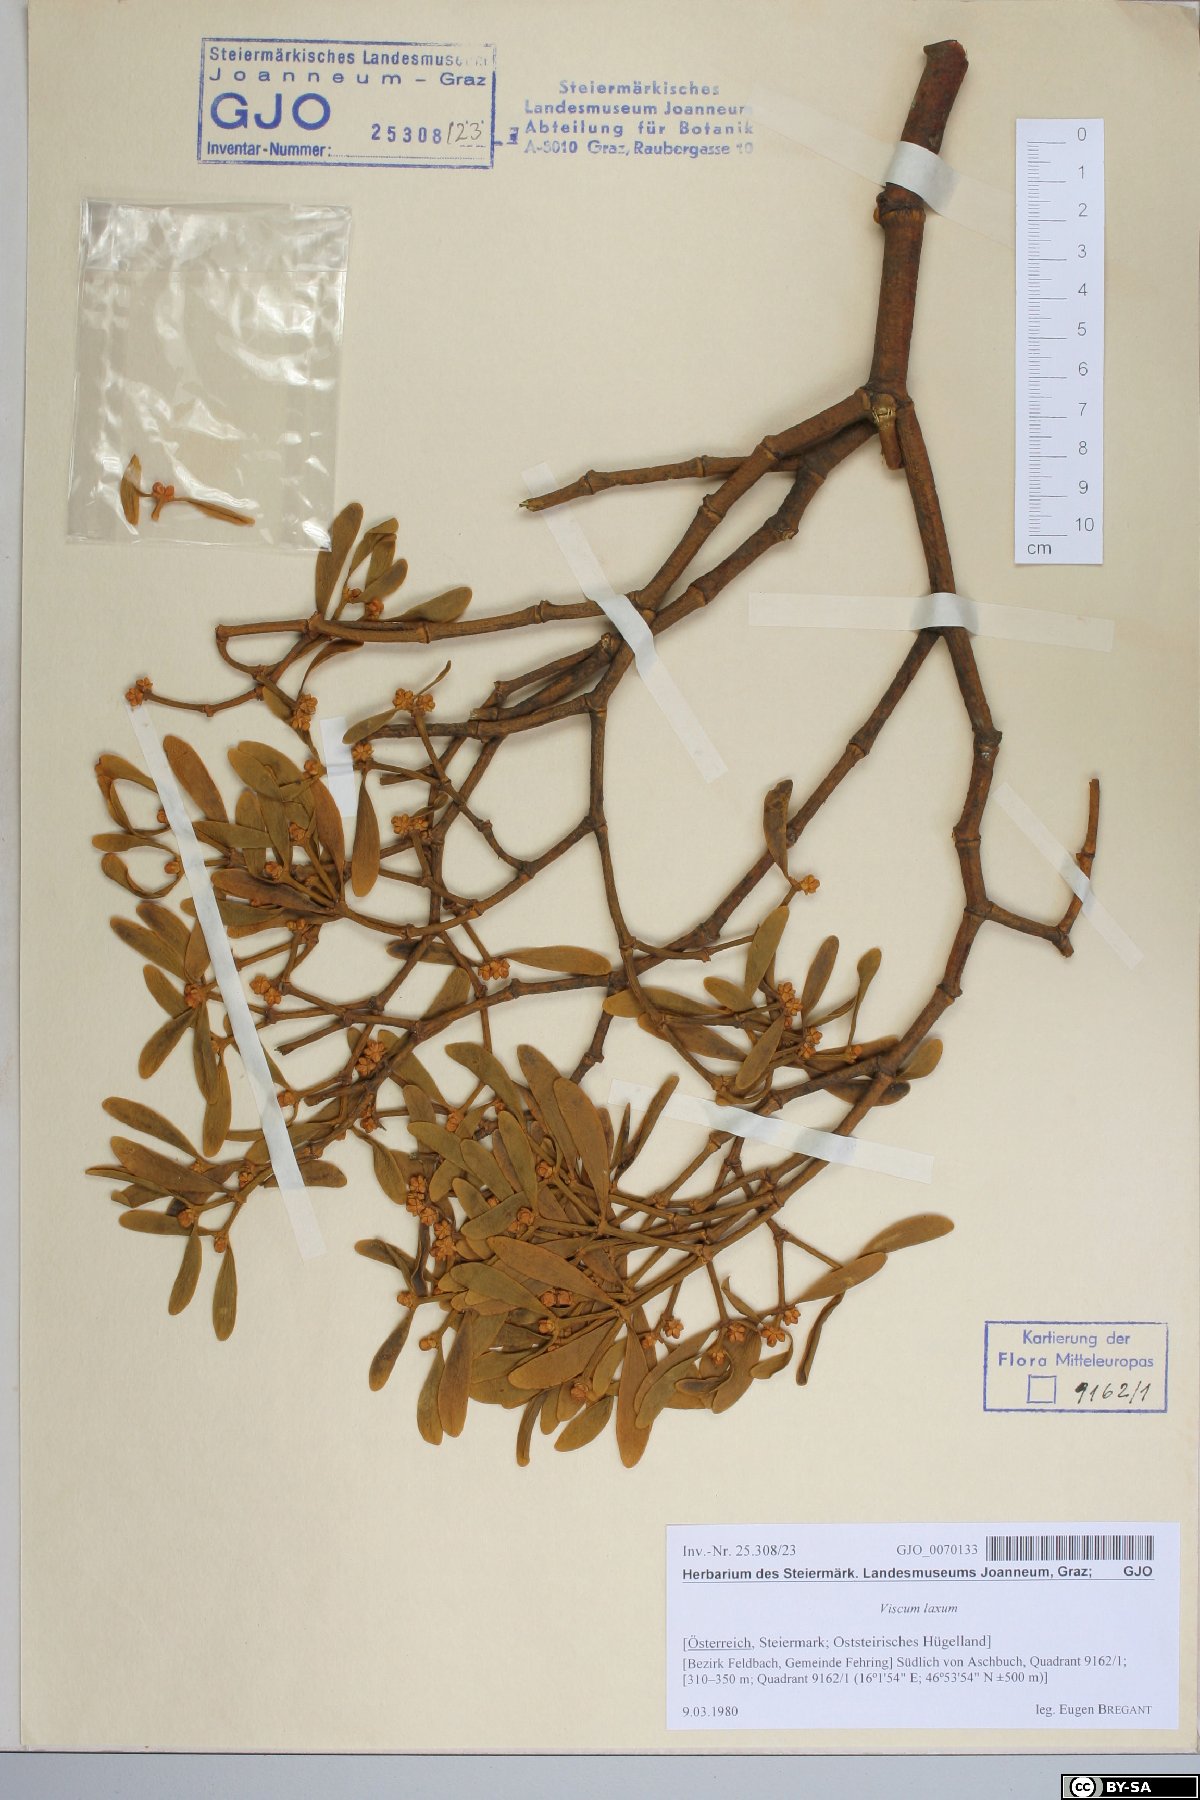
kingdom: Plantae
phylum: Tracheophyta
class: Magnoliopsida
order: Santalales
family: Viscaceae
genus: Viscum
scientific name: Viscum laxum
